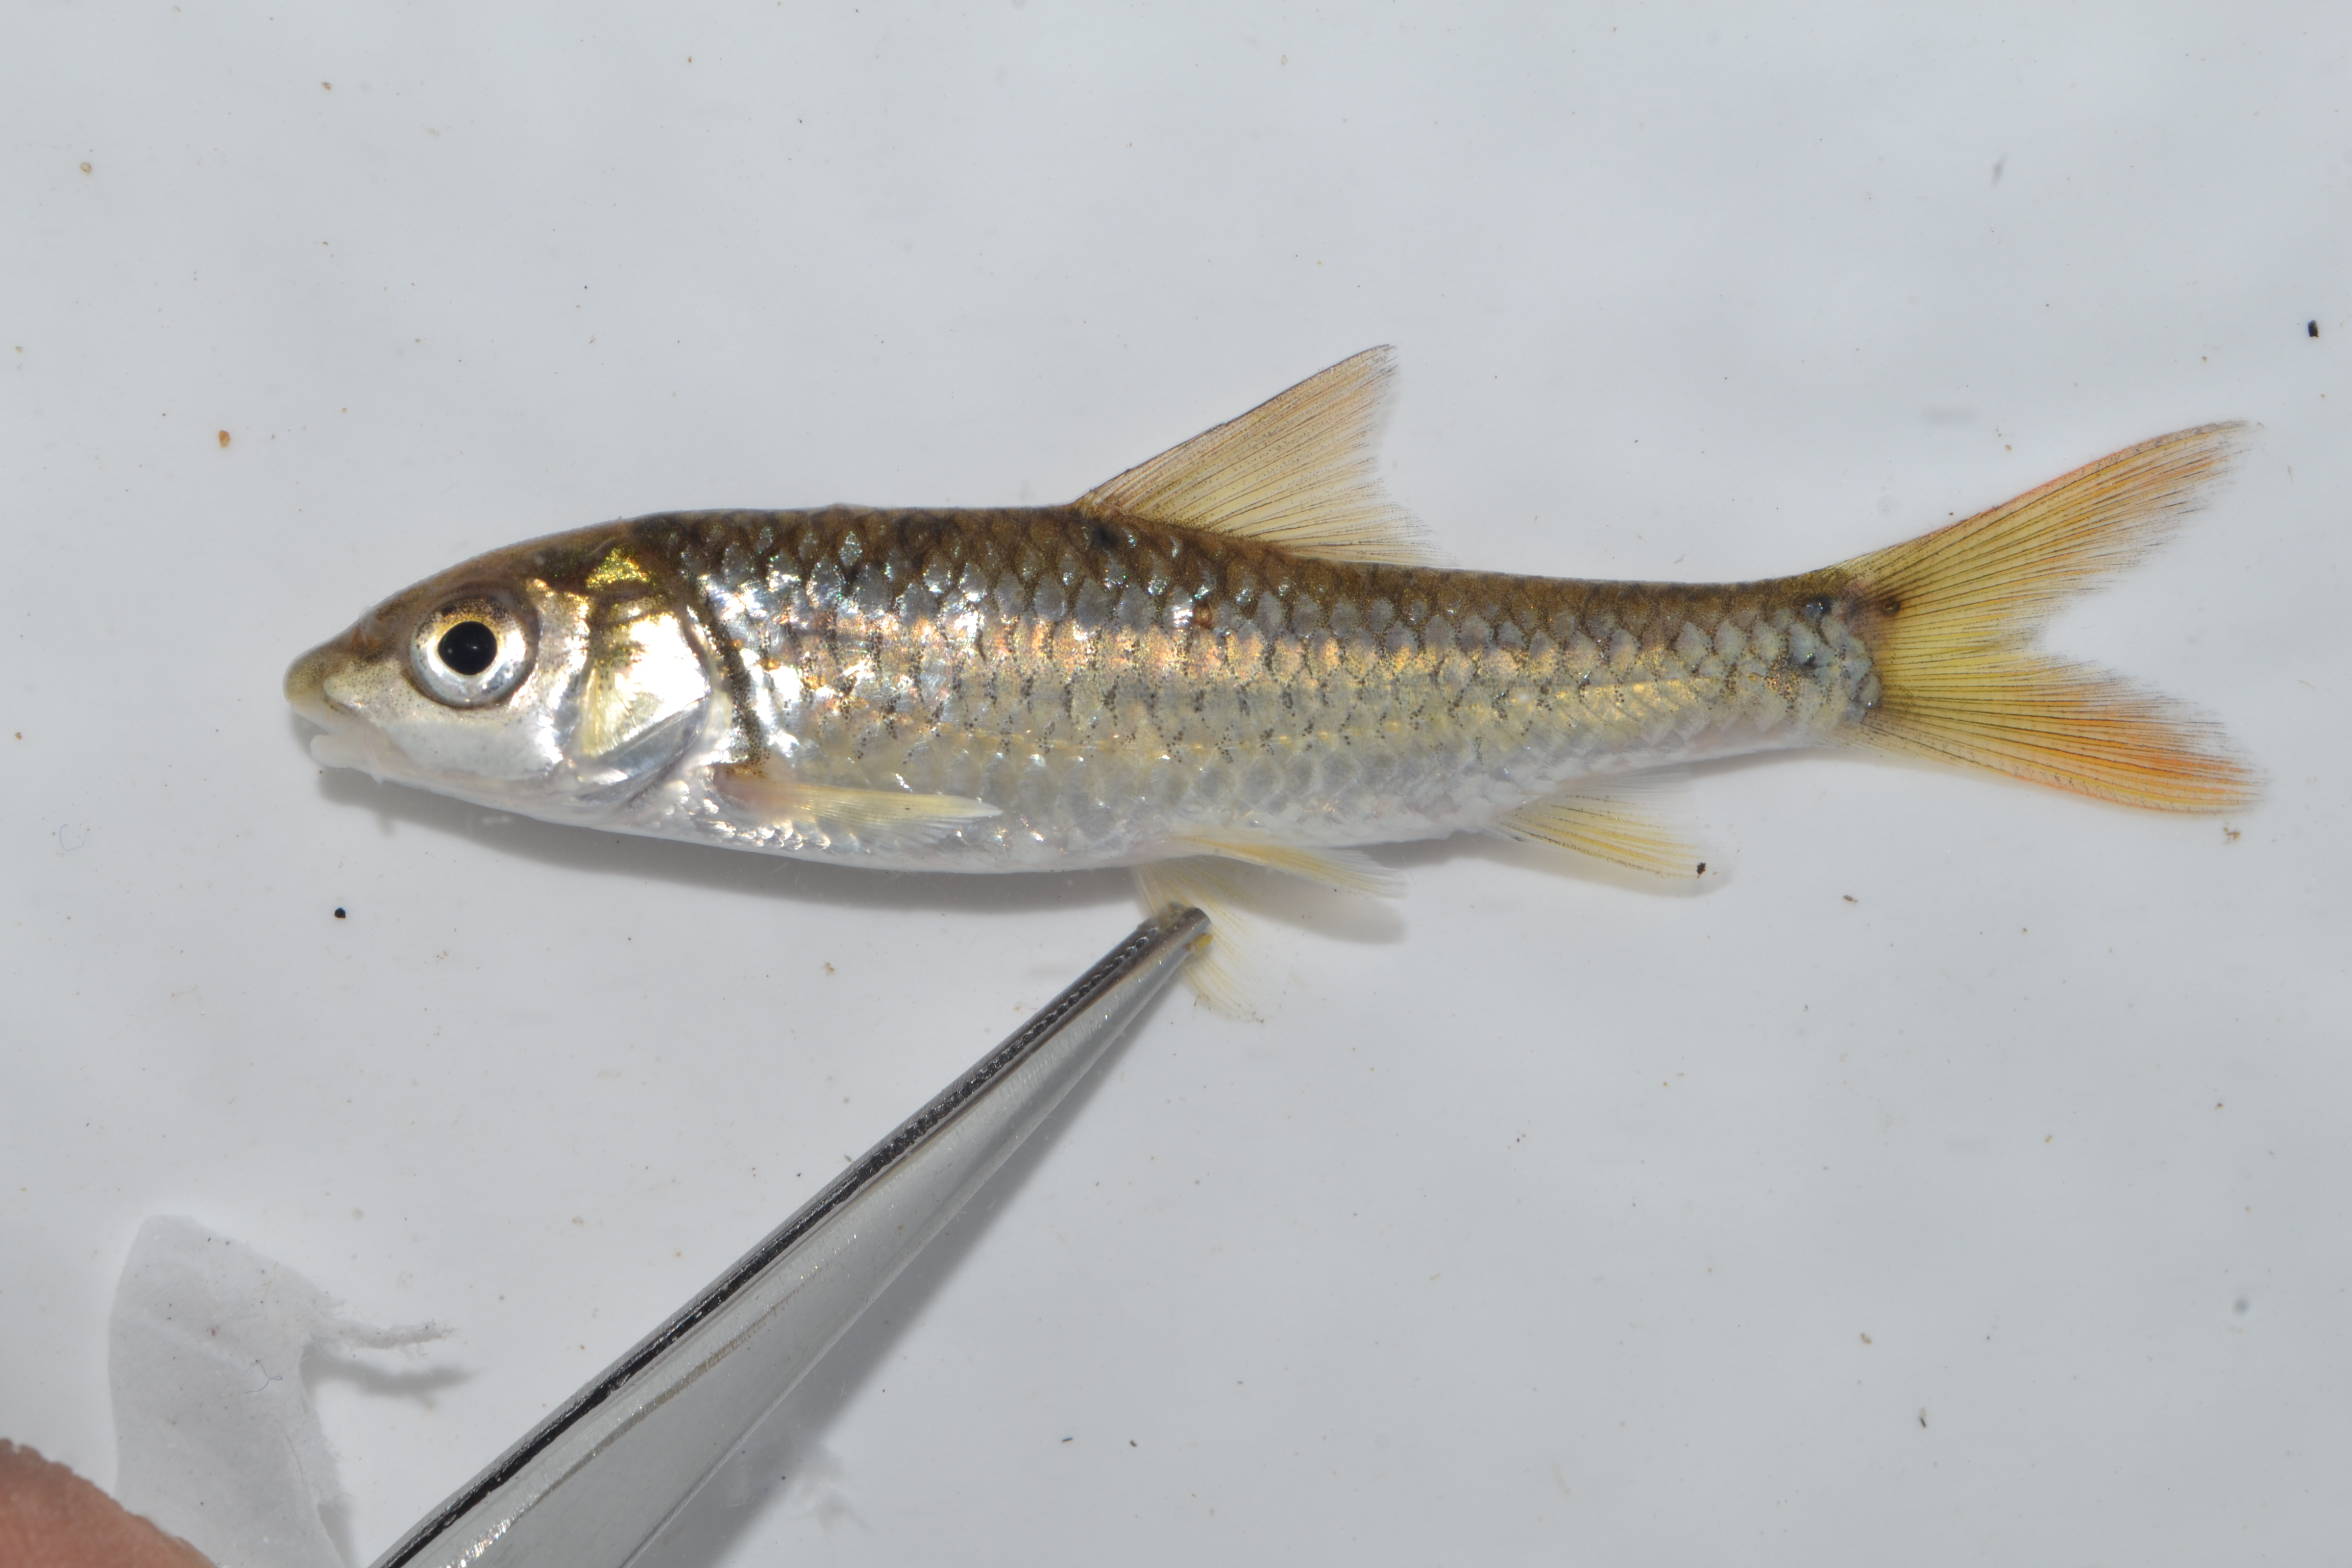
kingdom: Animalia
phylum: Chordata
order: Cypriniformes
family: Cyprinidae
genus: Enteromius
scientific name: Enteromius unitaeniatus
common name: Longbeard barb
